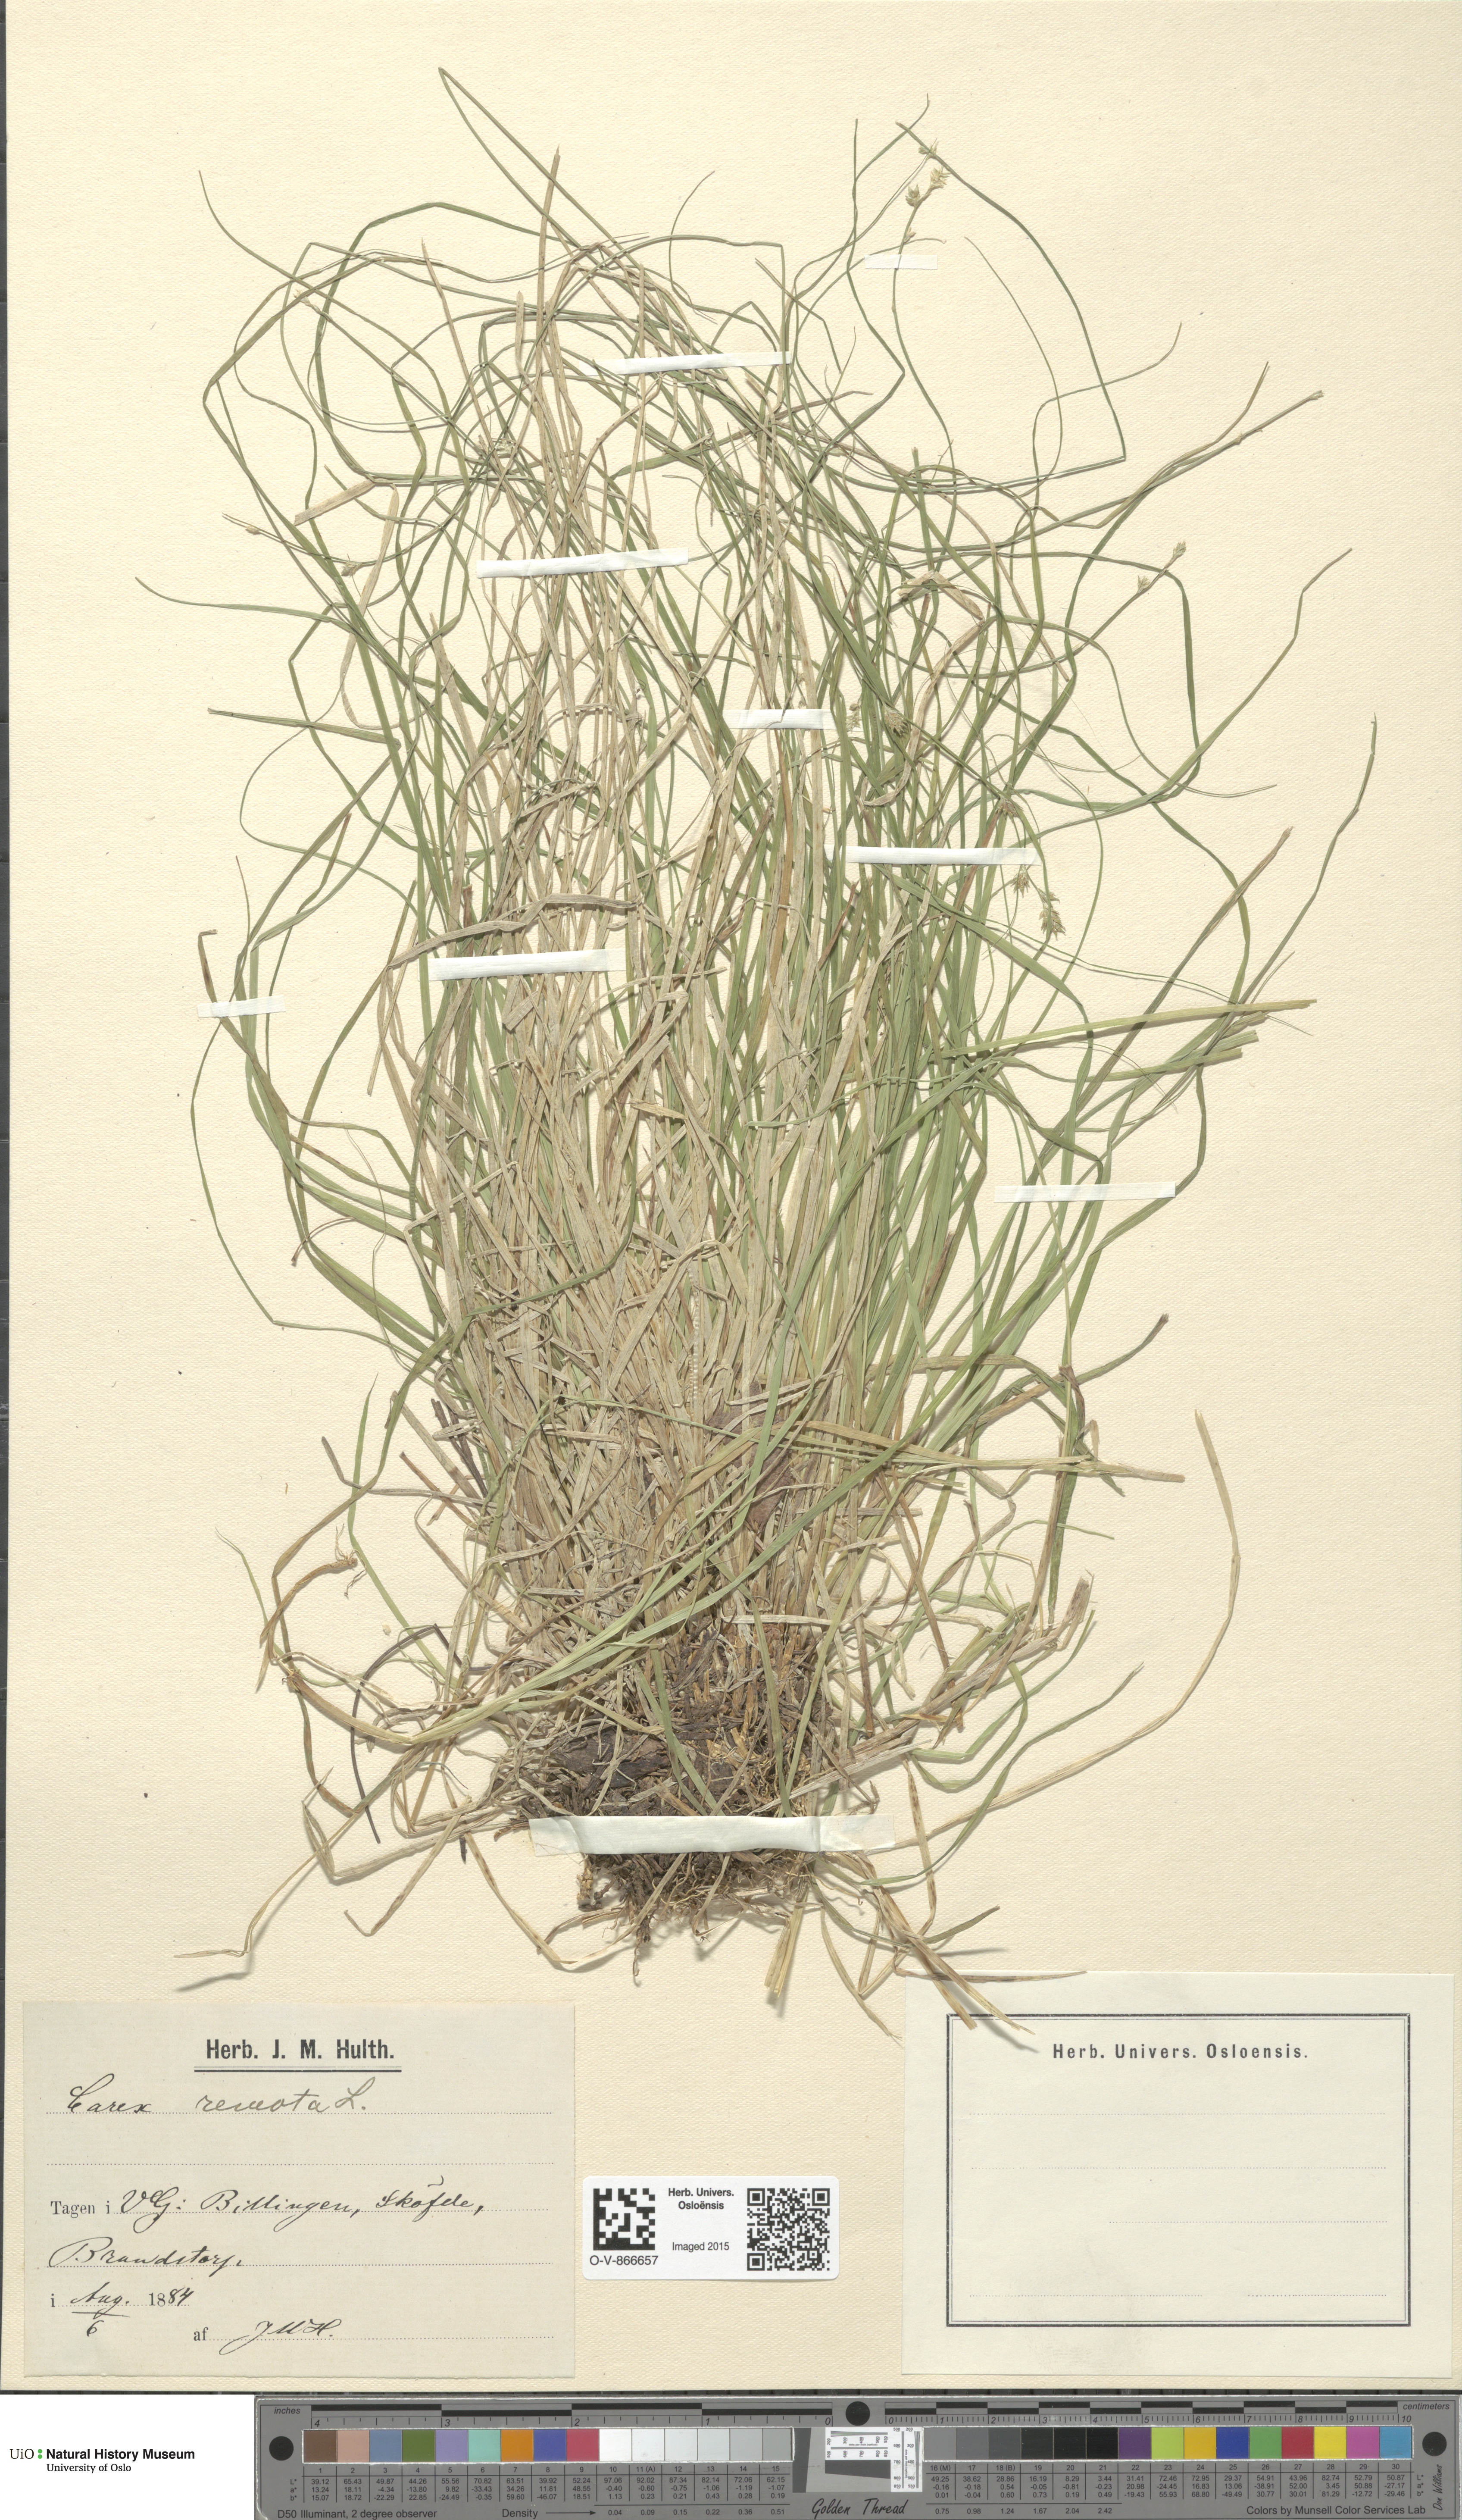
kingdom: Plantae
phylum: Tracheophyta
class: Liliopsida
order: Poales
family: Cyperaceae
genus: Carex
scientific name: Carex remota
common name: Remote sedge
